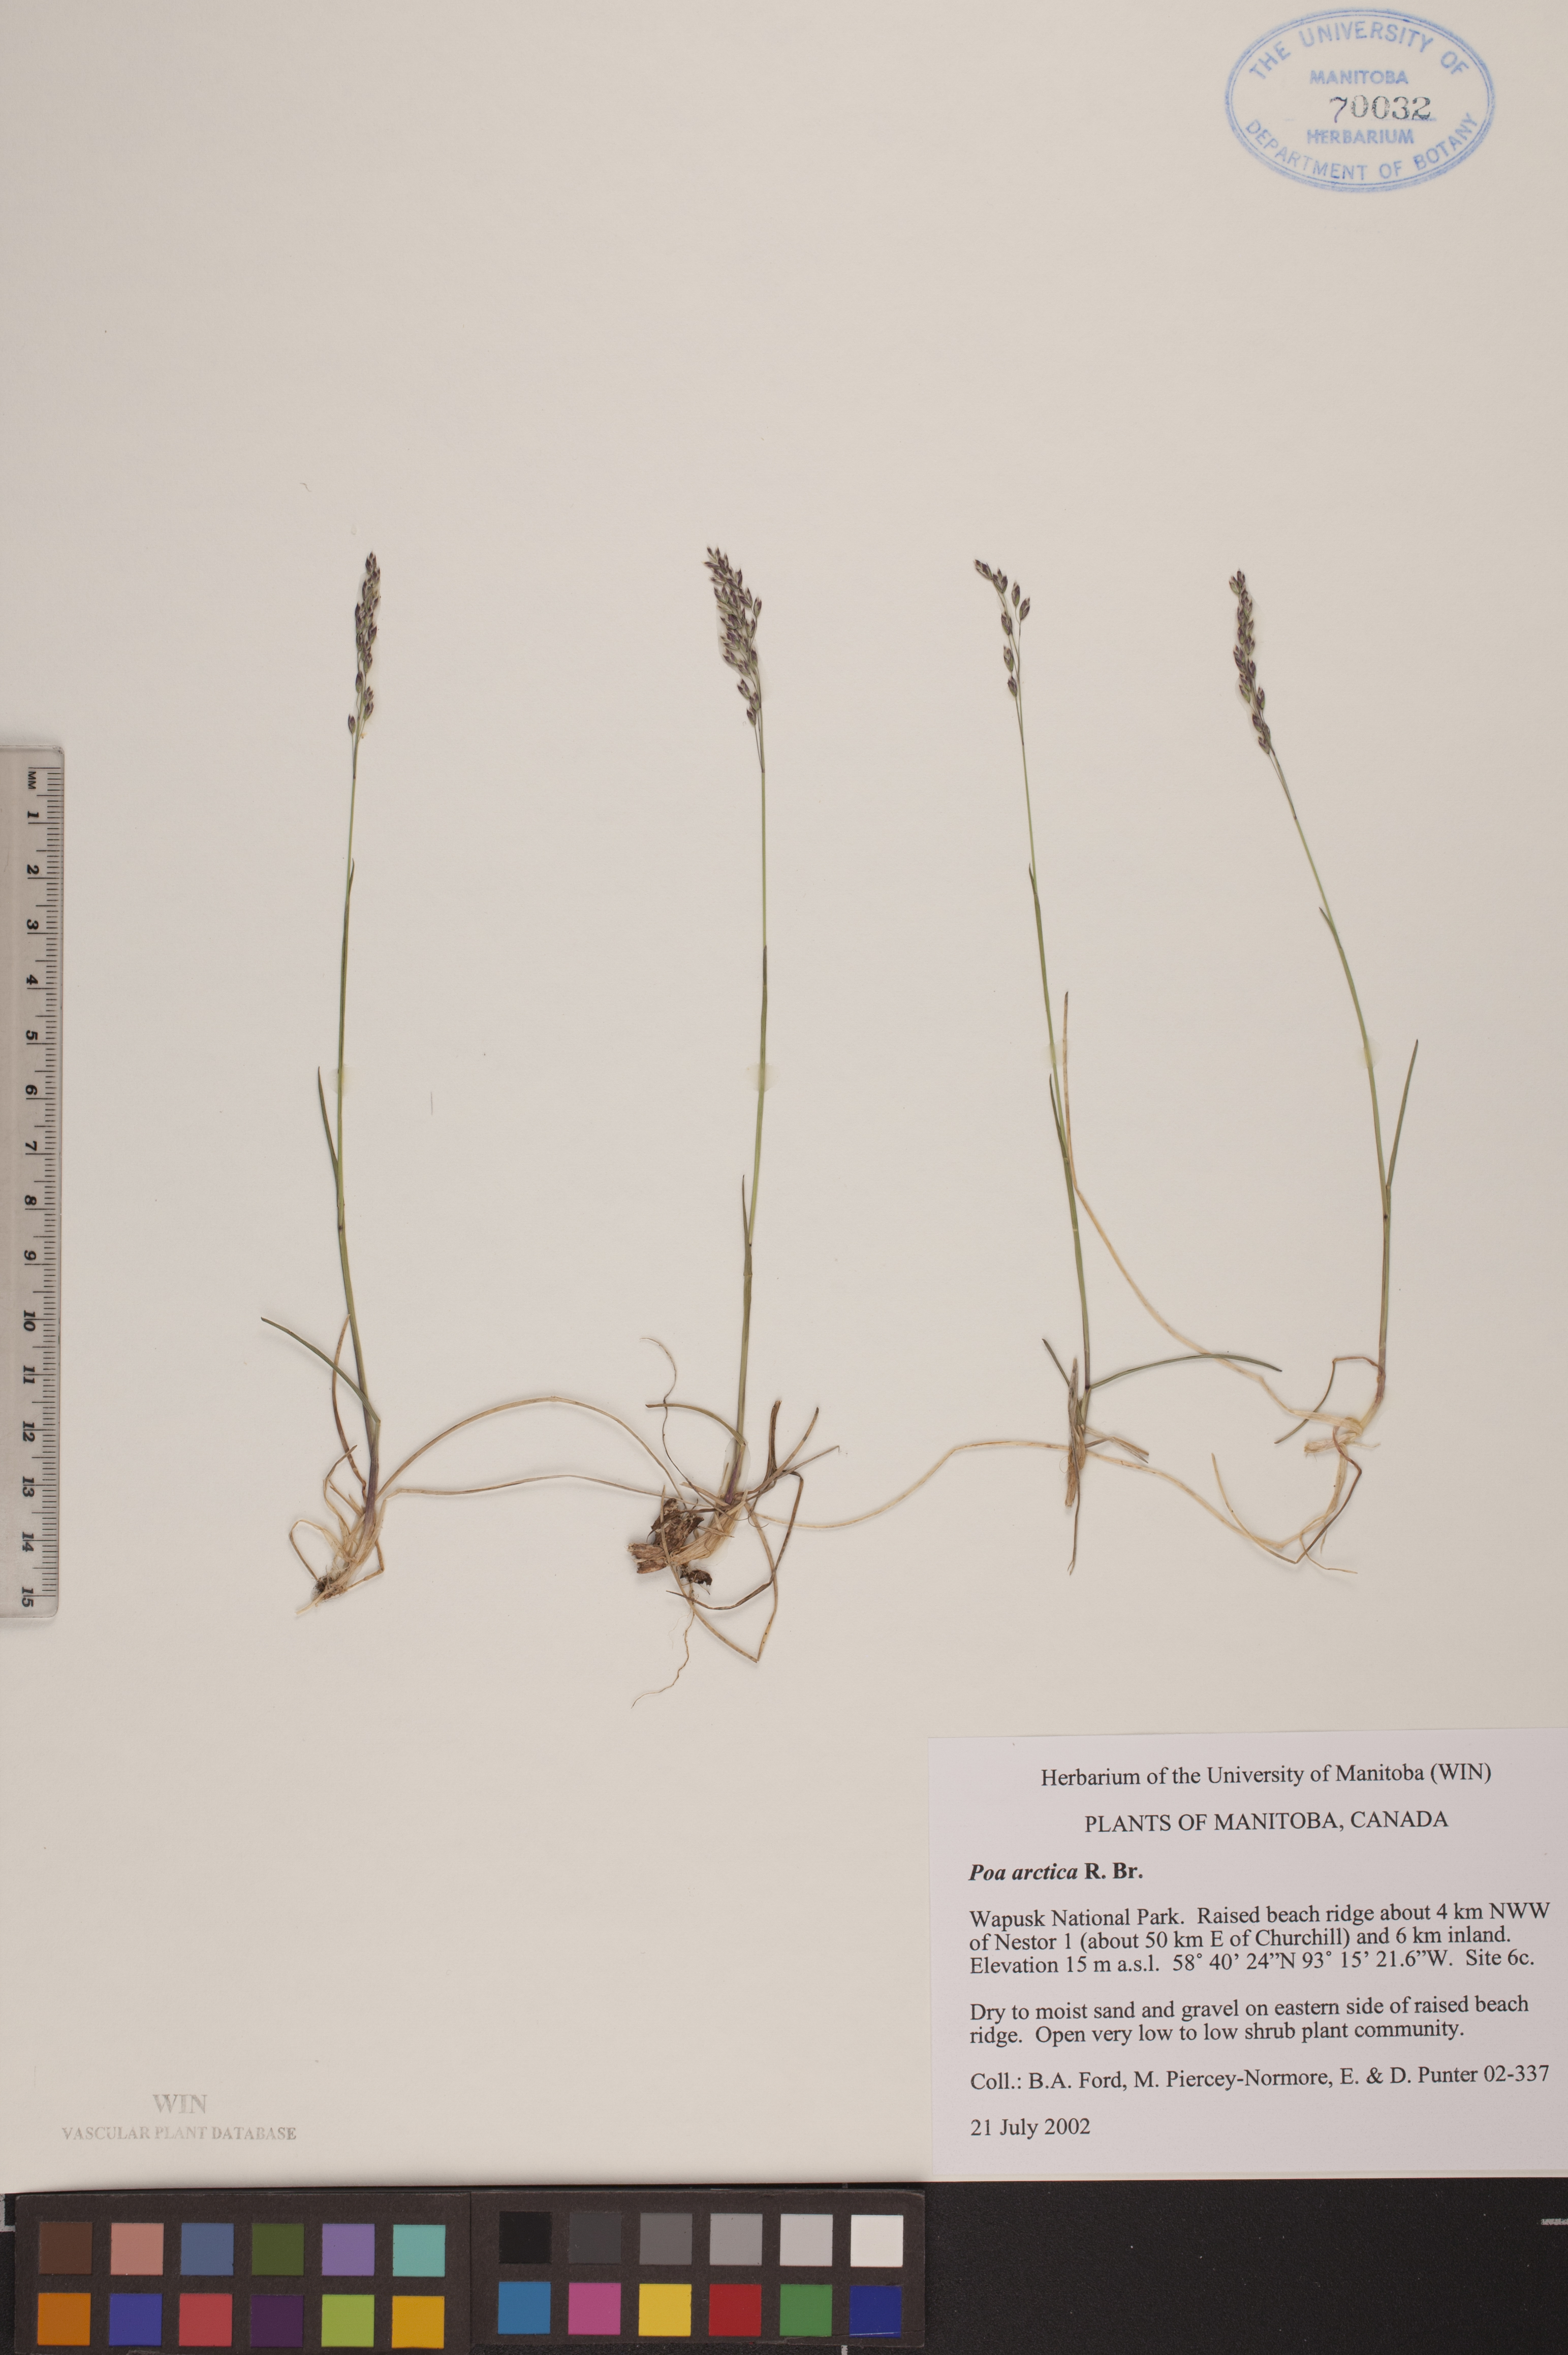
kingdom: Plantae
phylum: Tracheophyta
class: Liliopsida
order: Poales
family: Poaceae
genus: Poa
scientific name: Poa arctica
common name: Arctic bluegrass
